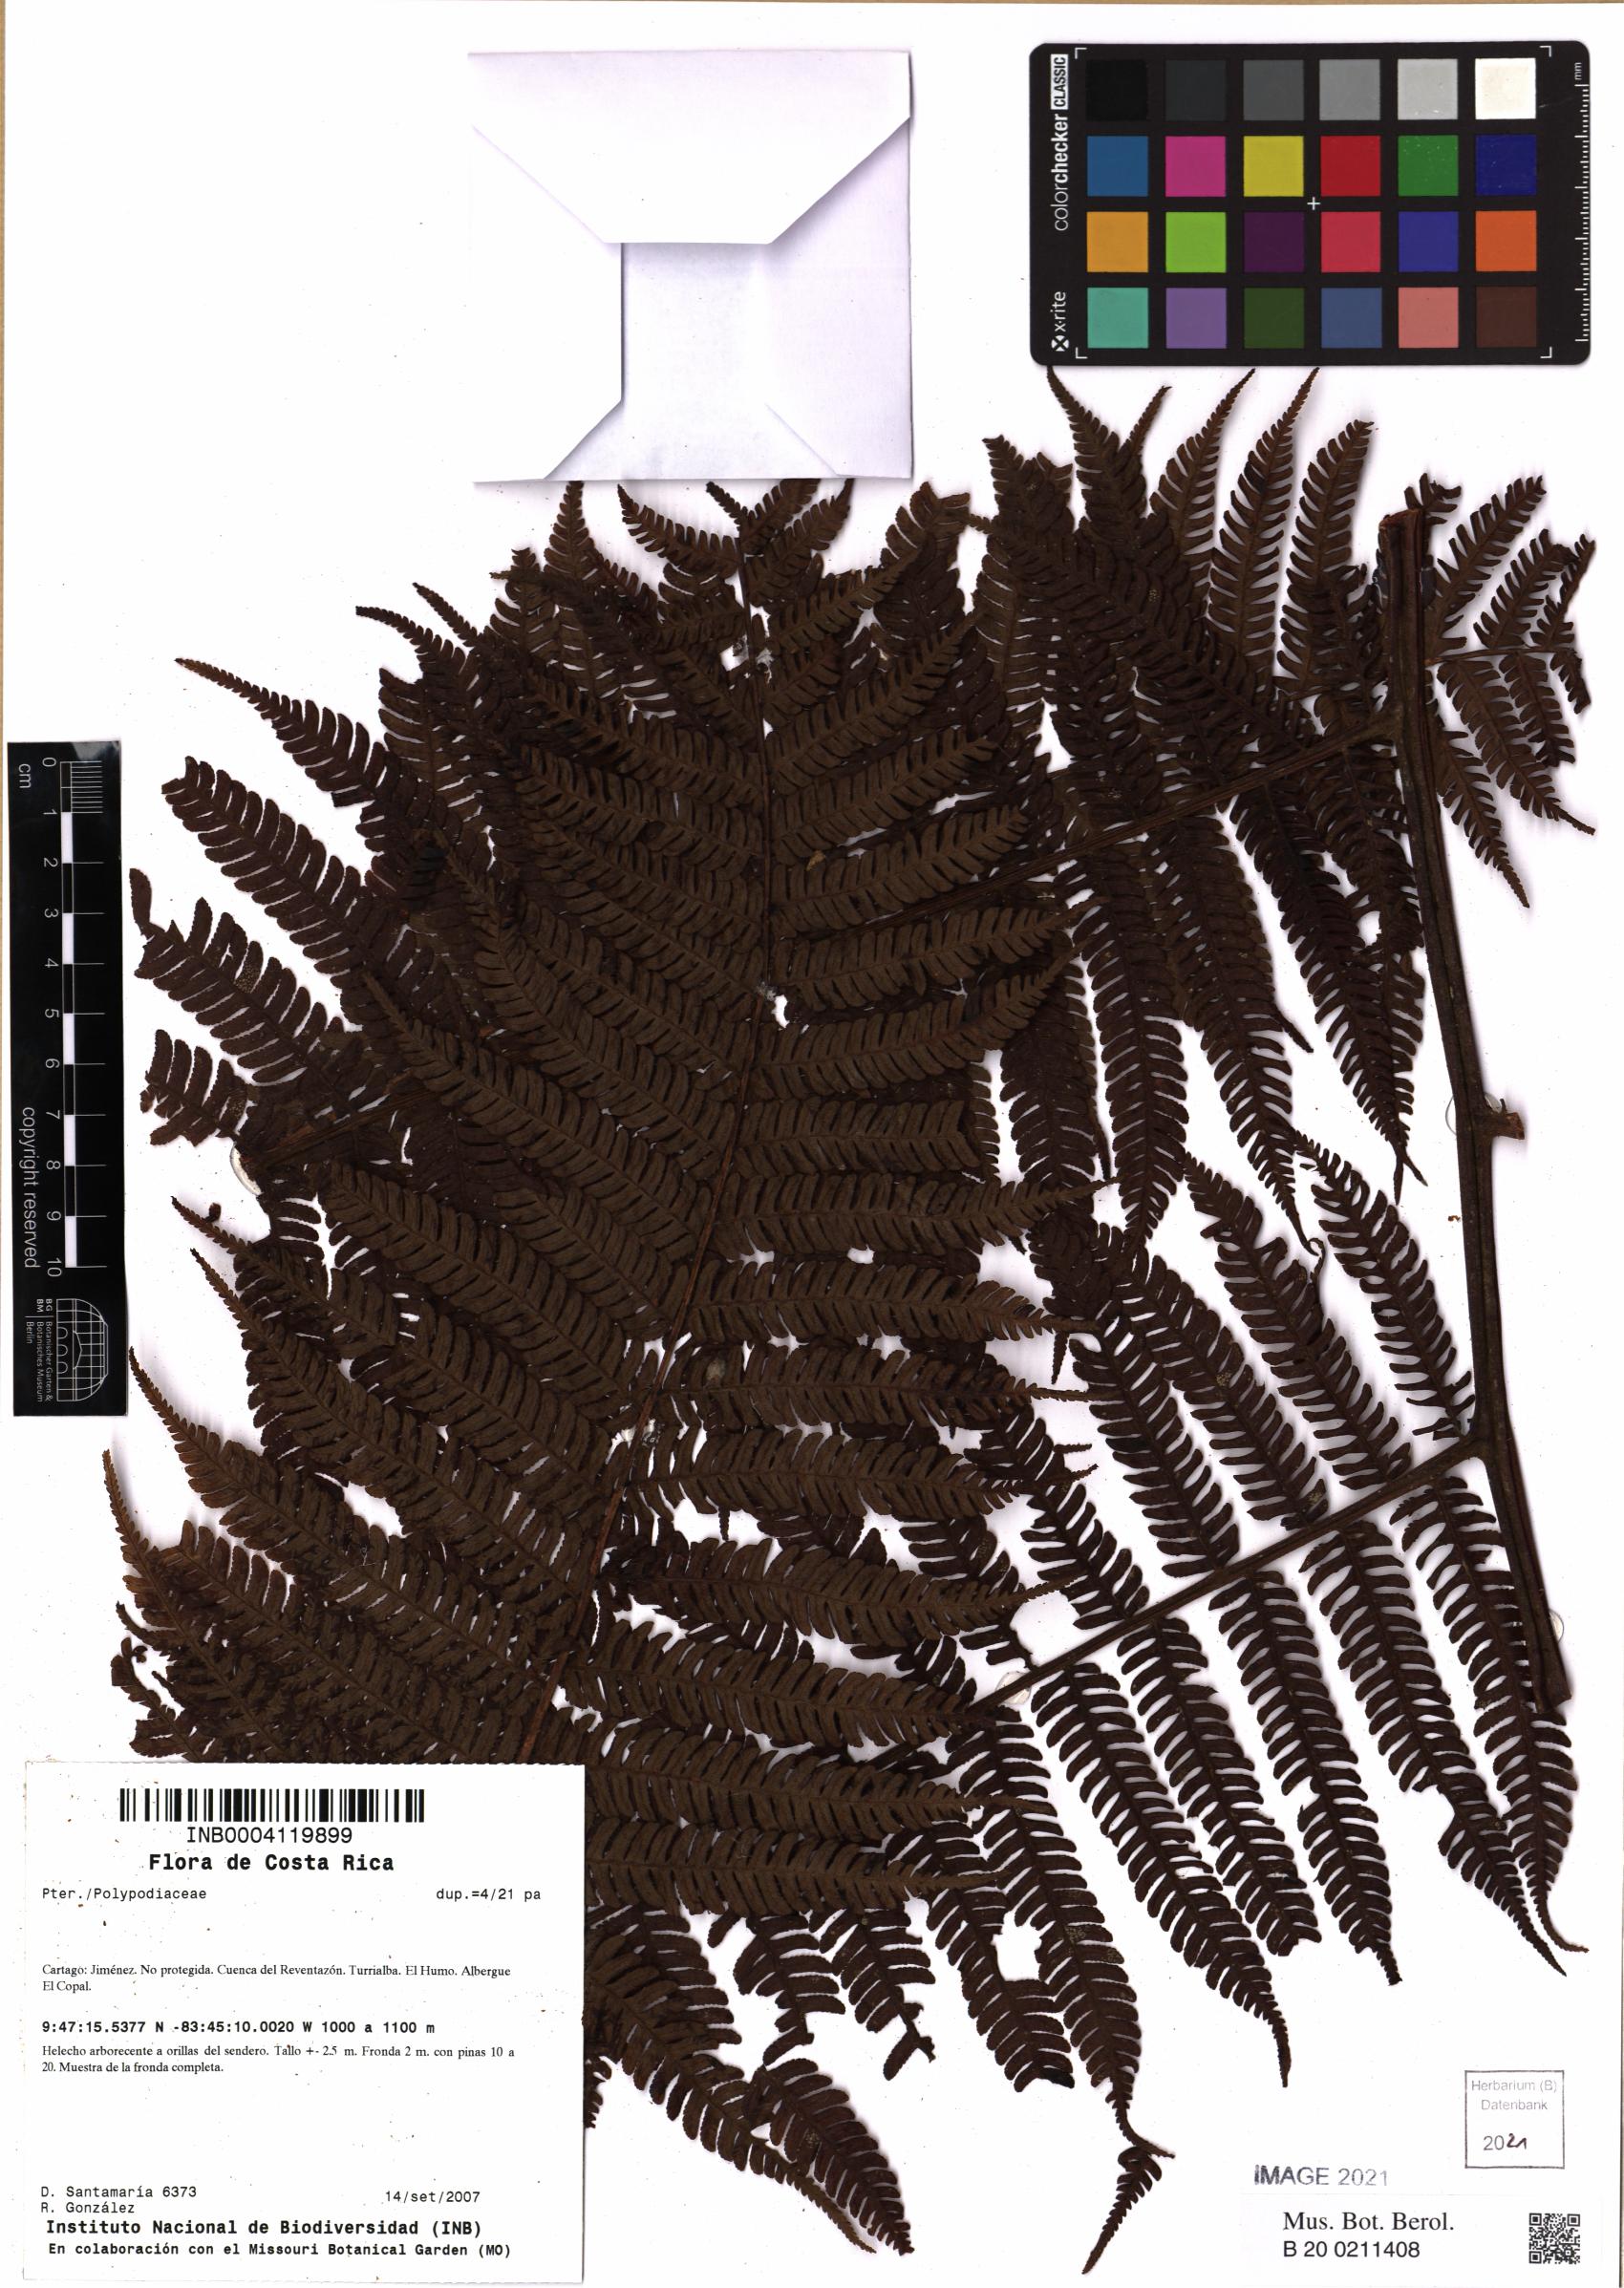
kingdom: Plantae
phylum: Tracheophyta
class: Polypodiopsida
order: Polypodiales
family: Polypodiaceae
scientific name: Polypodiaceae
